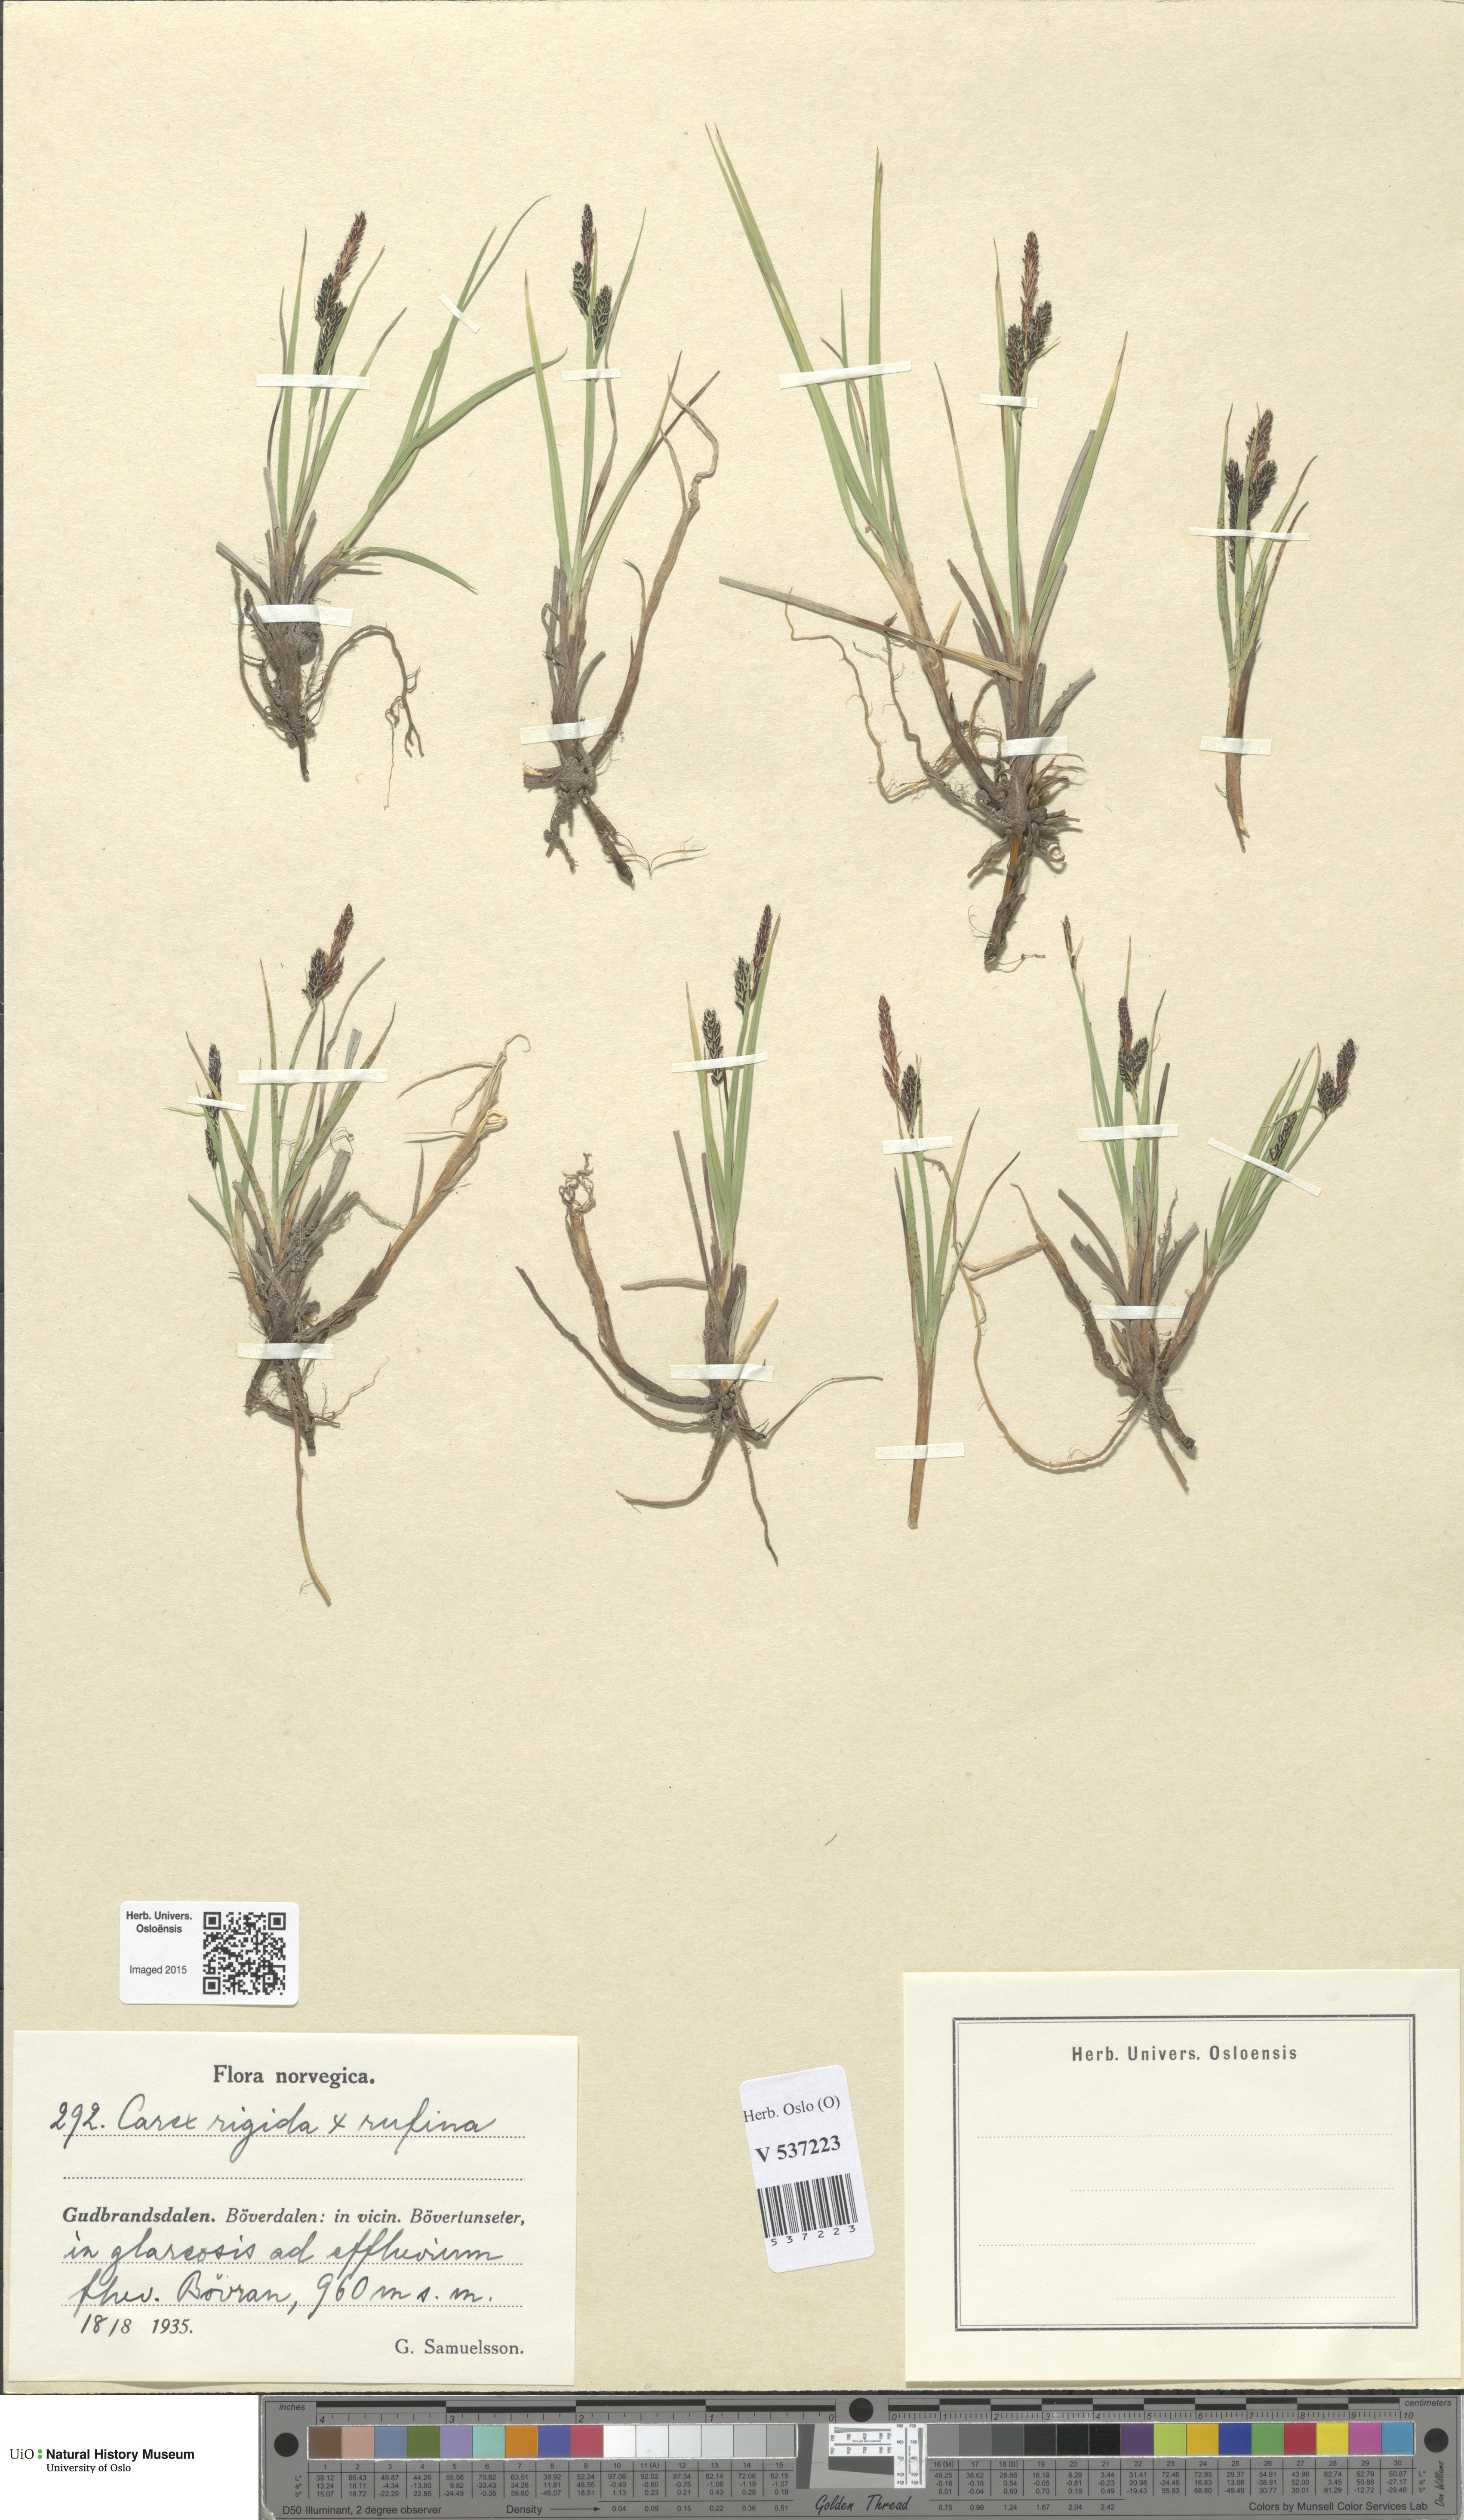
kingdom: Plantae
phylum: Tracheophyta
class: Liliopsida
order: Poales
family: Cyperaceae
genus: Carex
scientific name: Carex
